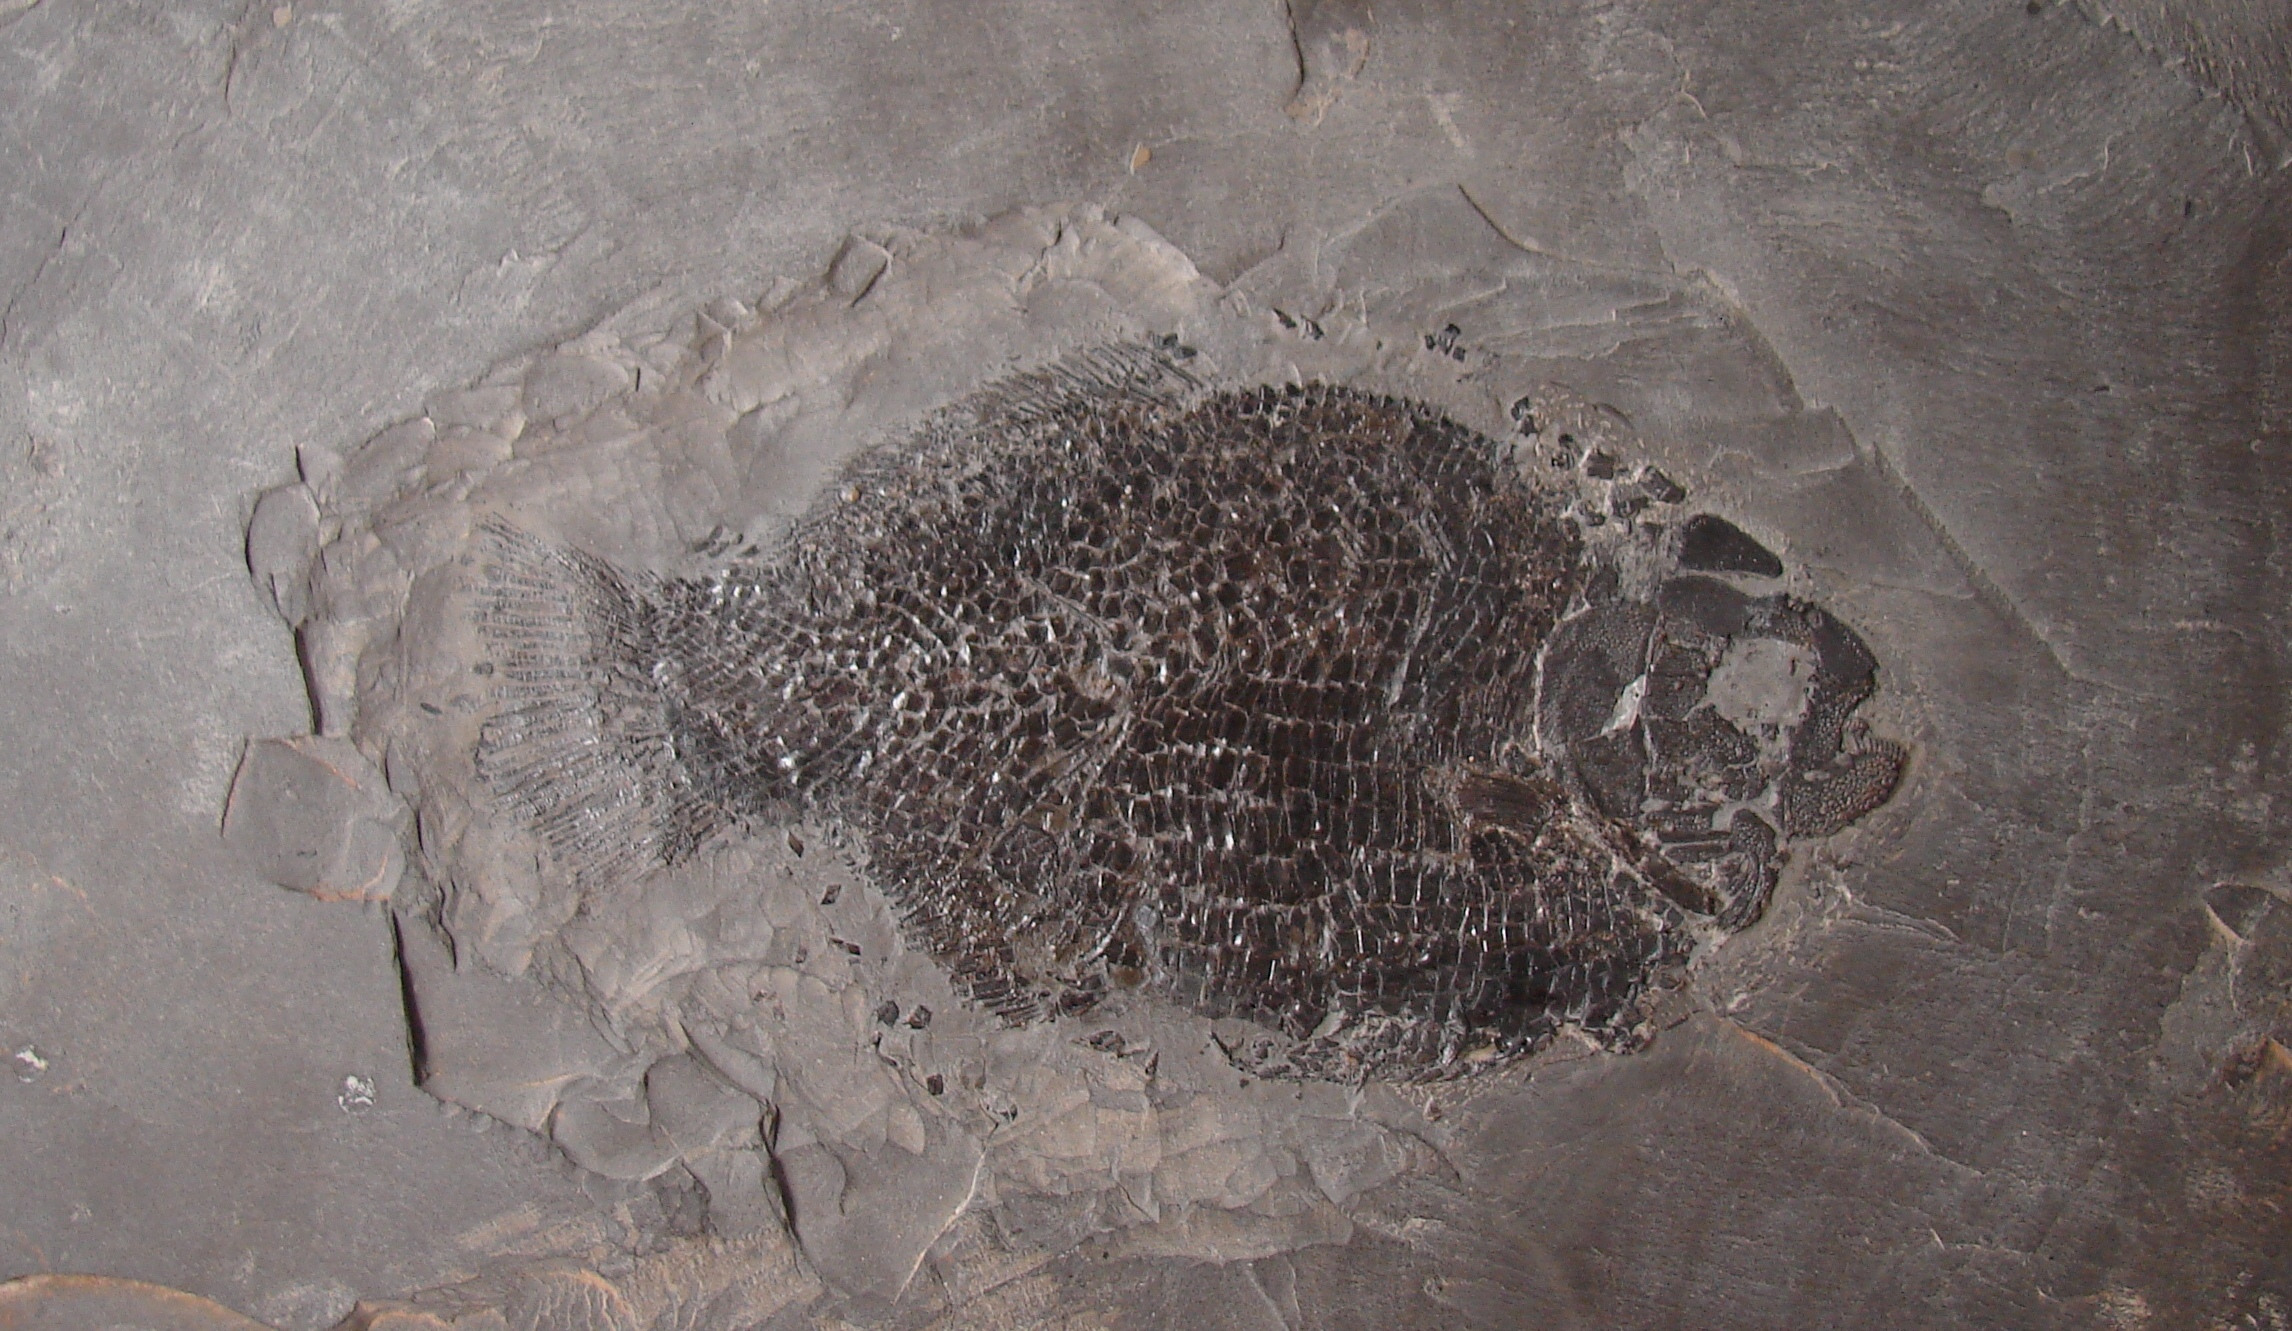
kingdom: Animalia
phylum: Chordata
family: Dapediidae
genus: Dapedium
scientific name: Dapedium punctatum
